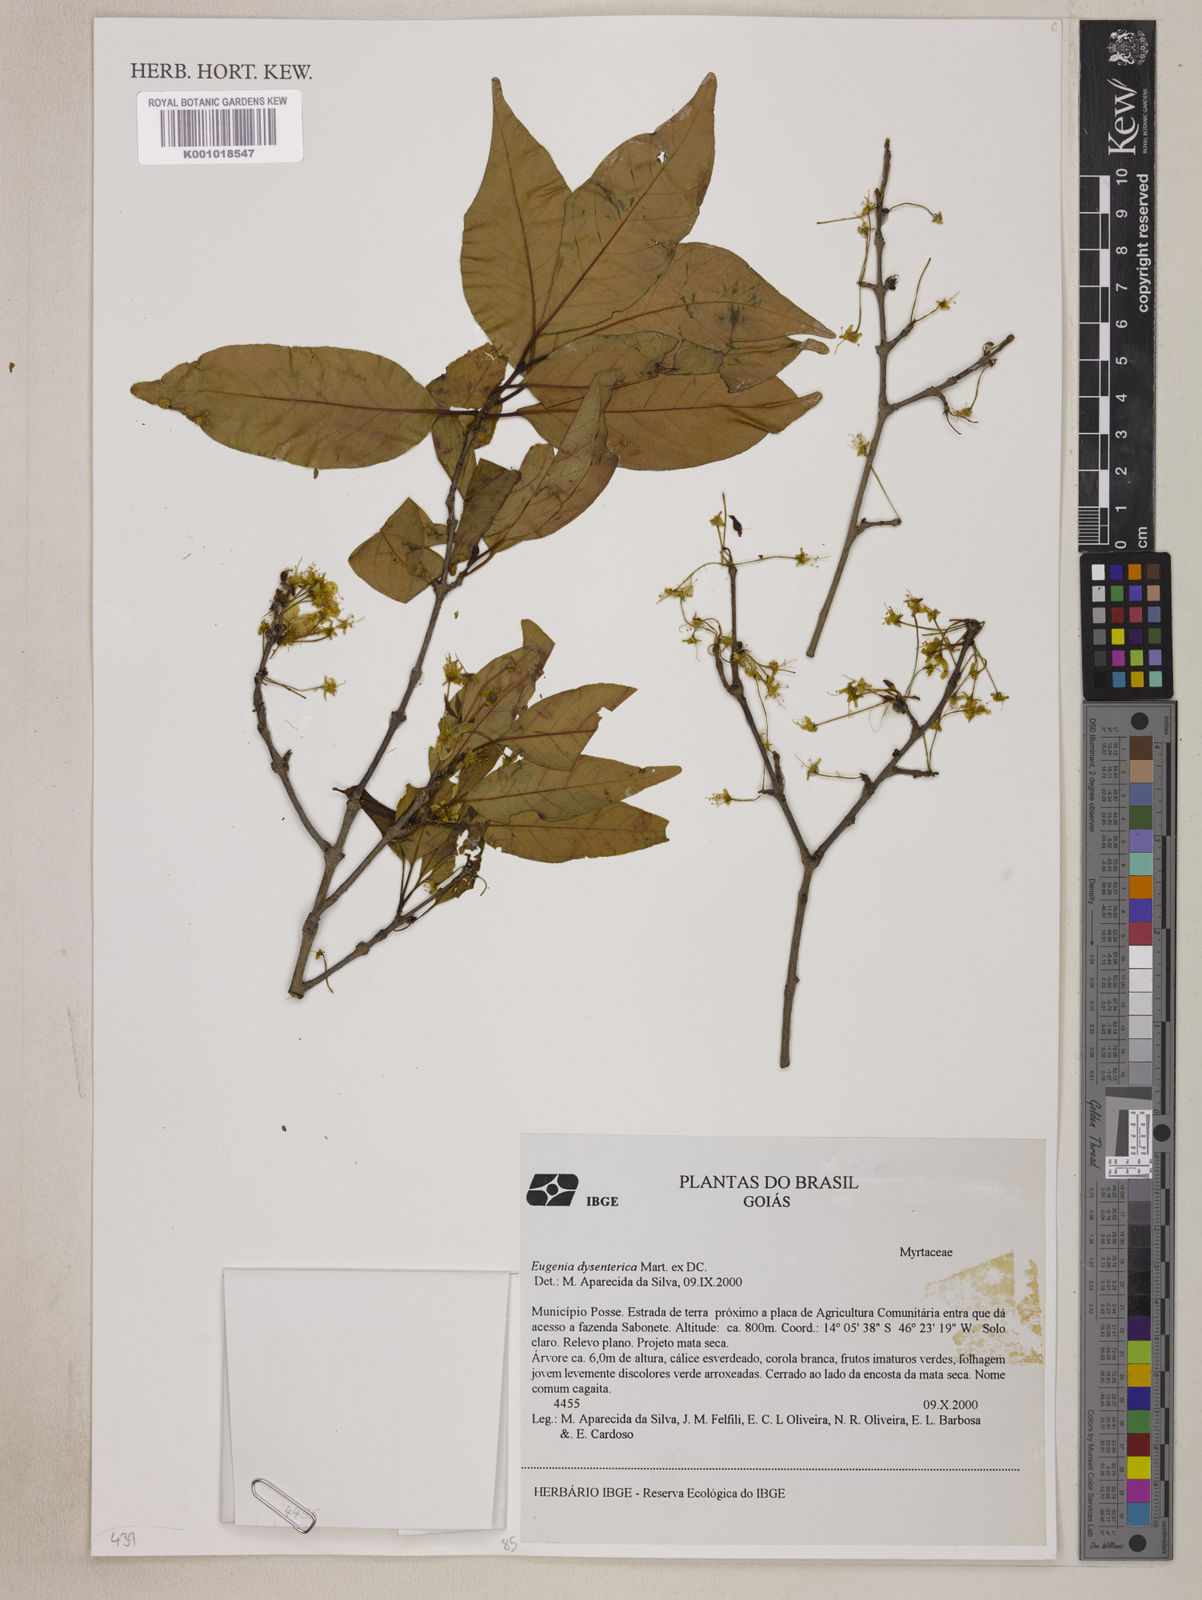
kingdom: Plantae
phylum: Tracheophyta
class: Magnoliopsida
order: Myrtales
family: Myrtaceae
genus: Eugenia
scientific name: Eugenia dysenterica
